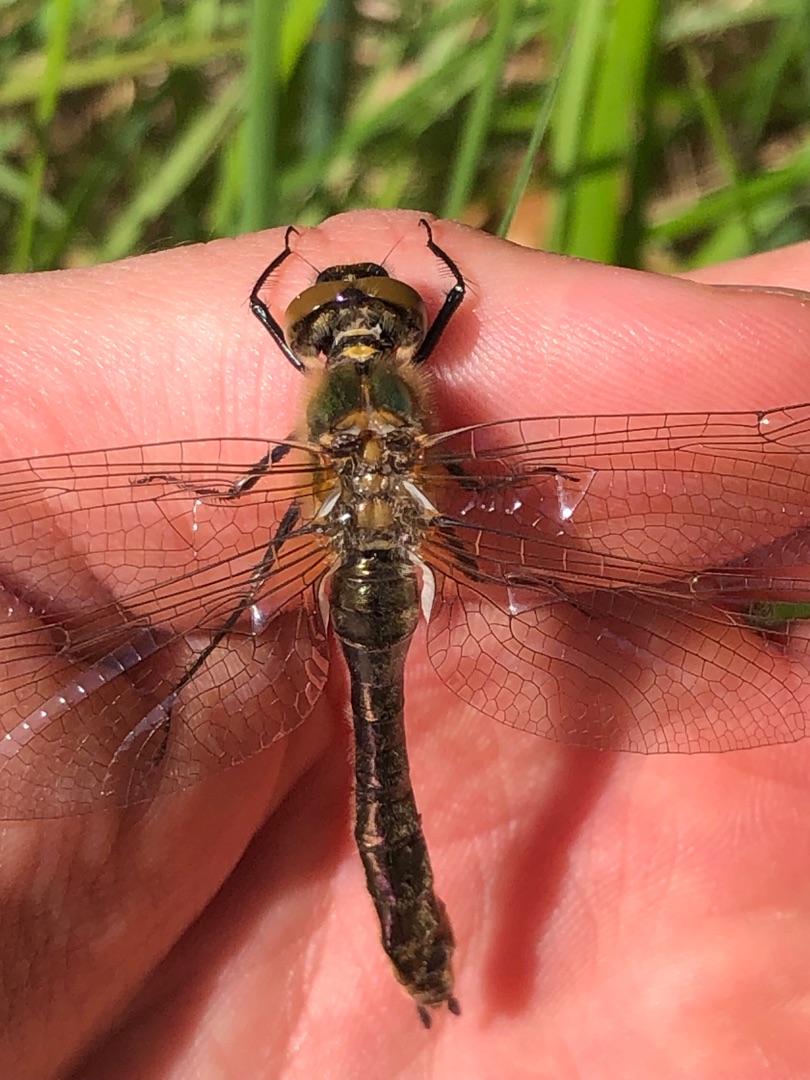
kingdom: Animalia
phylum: Arthropoda
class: Insecta
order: Odonata
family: Corduliidae
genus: Cordulia
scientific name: Cordulia aenea
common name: Grøn smaragdlibel
